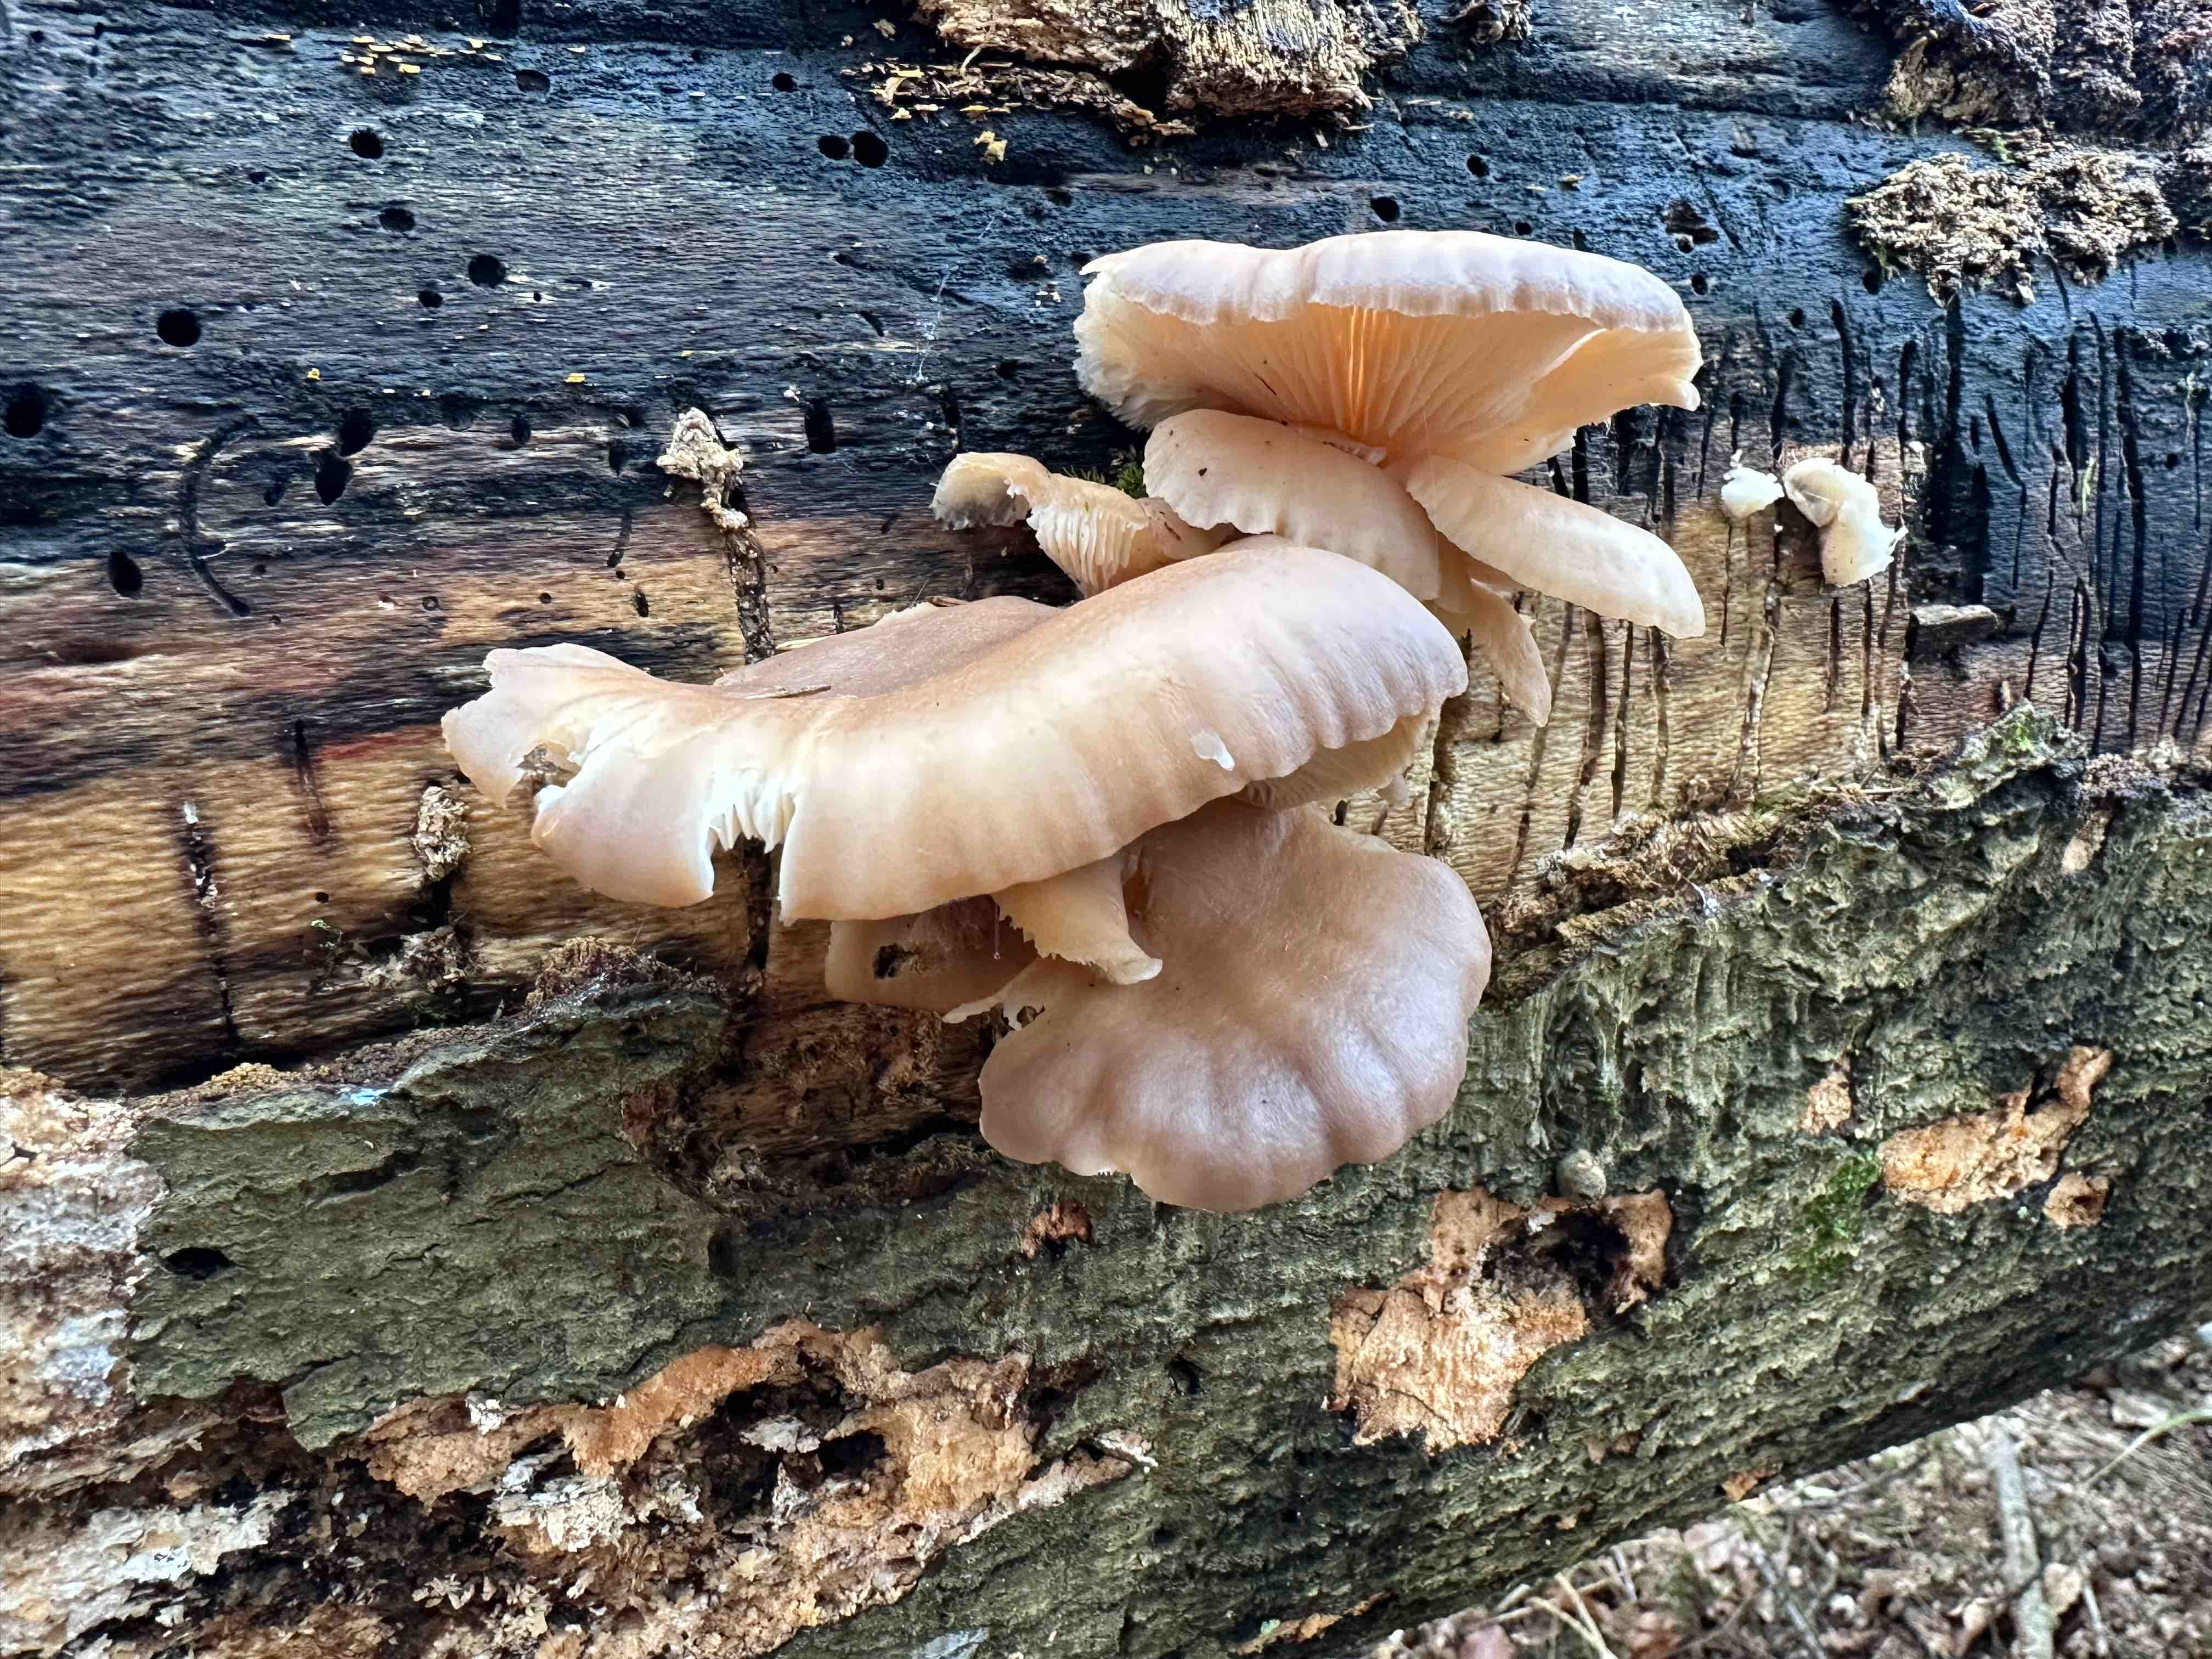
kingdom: Fungi
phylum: Basidiomycota
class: Agaricomycetes
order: Agaricales
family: Pleurotaceae
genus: Pleurotus
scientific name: Pleurotus ostreatus
